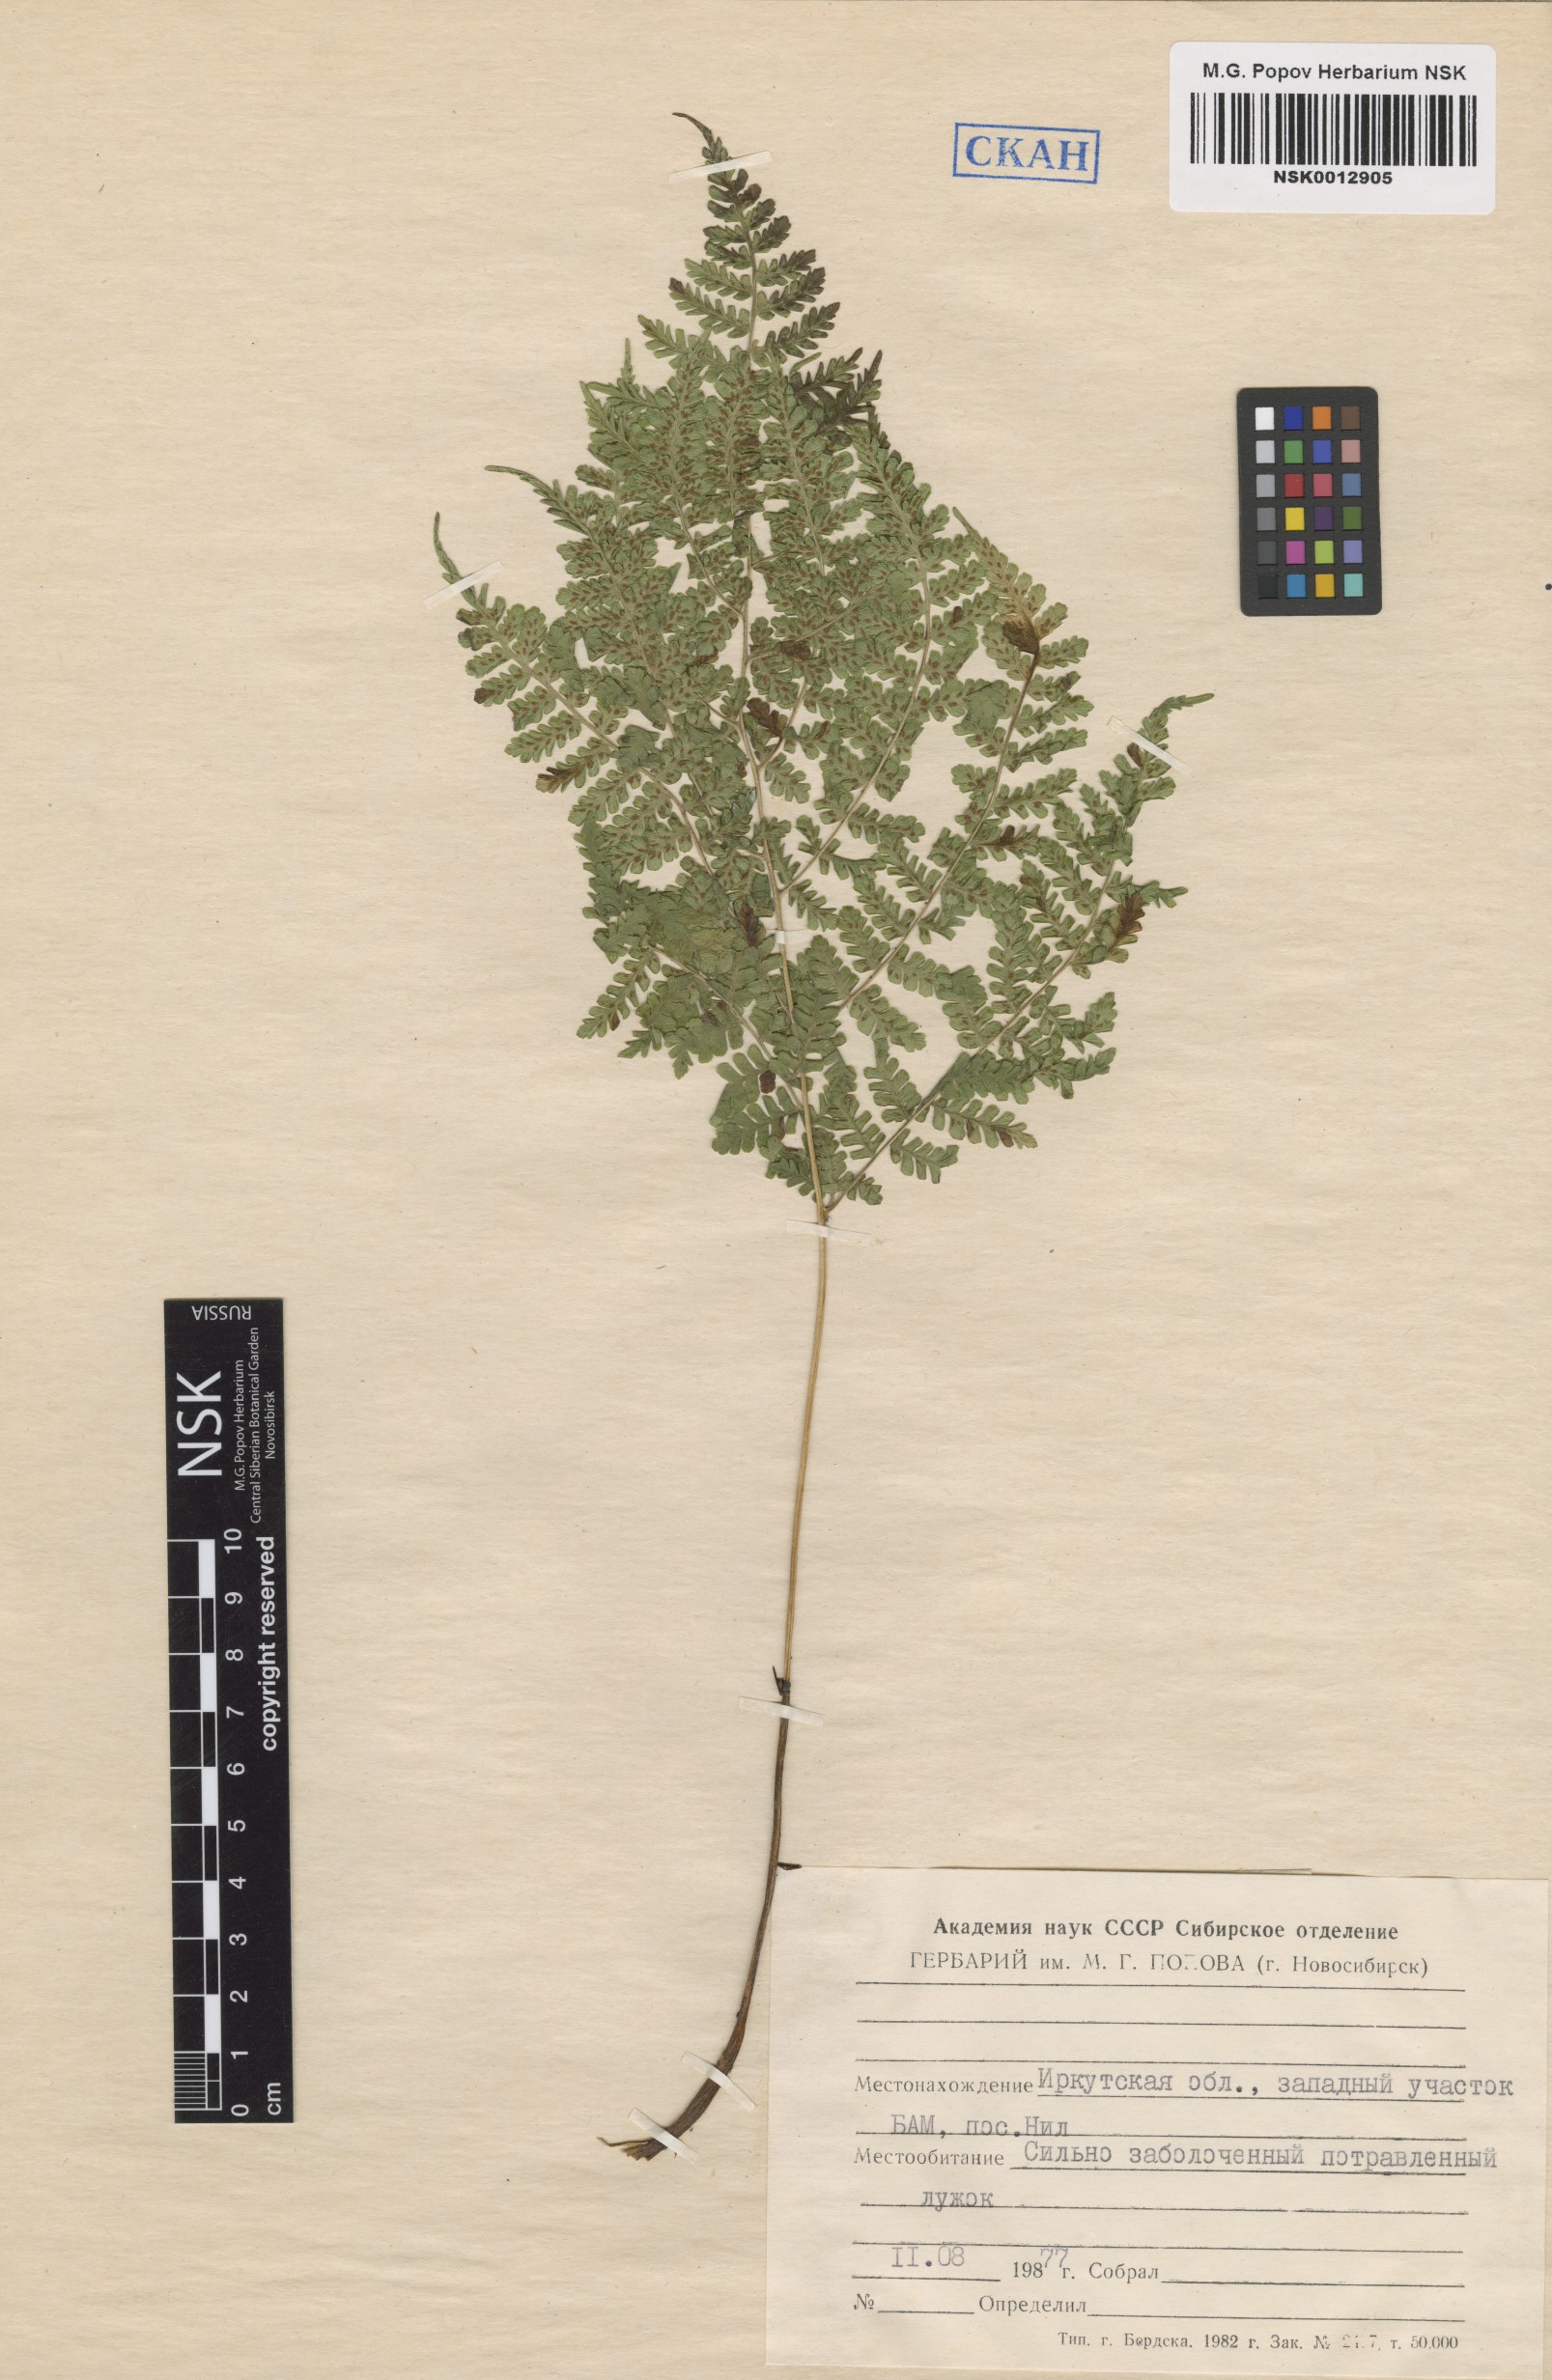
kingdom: Plantae
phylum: Tracheophyta
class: Polypodiopsida
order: Polypodiales
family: Athyriaceae
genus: Diplazium
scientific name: Diplazium sibiricum
